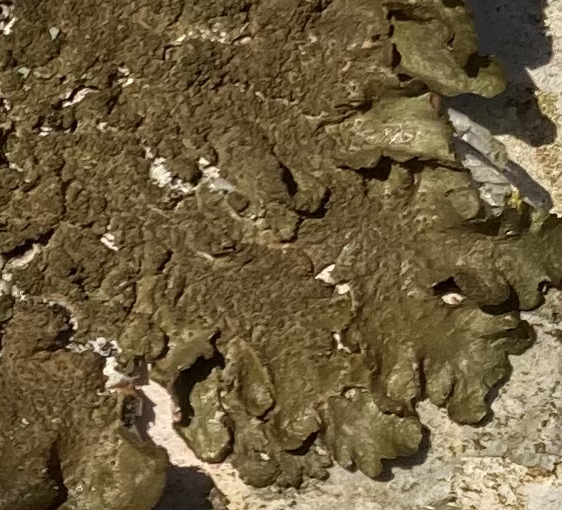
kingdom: Fungi
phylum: Ascomycota
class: Lecanoromycetes
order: Lecanorales
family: Parmeliaceae
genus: Melanelixia
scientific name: Melanelixia subaurifera
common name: guldpudret skållav
